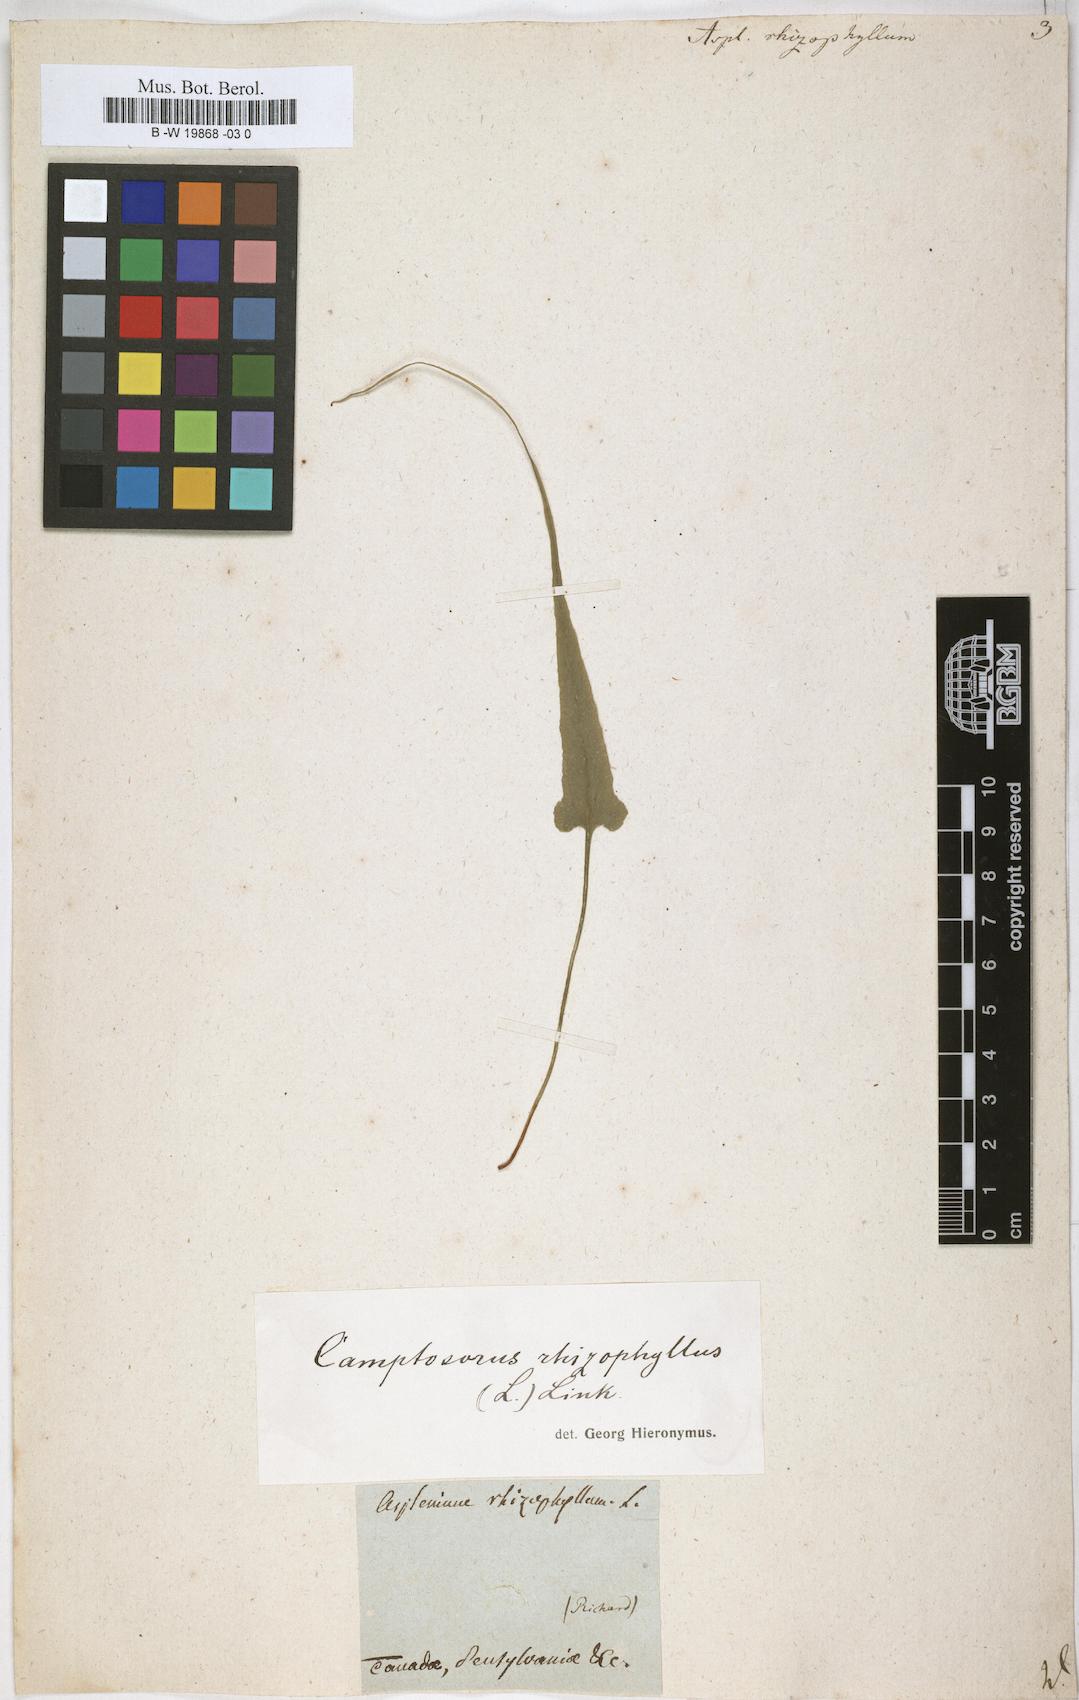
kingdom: Plantae
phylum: Tracheophyta
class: Polypodiopsida
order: Polypodiales
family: Aspleniaceae
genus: Asplenium
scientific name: Asplenium rhizophyllum
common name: Walking fern
